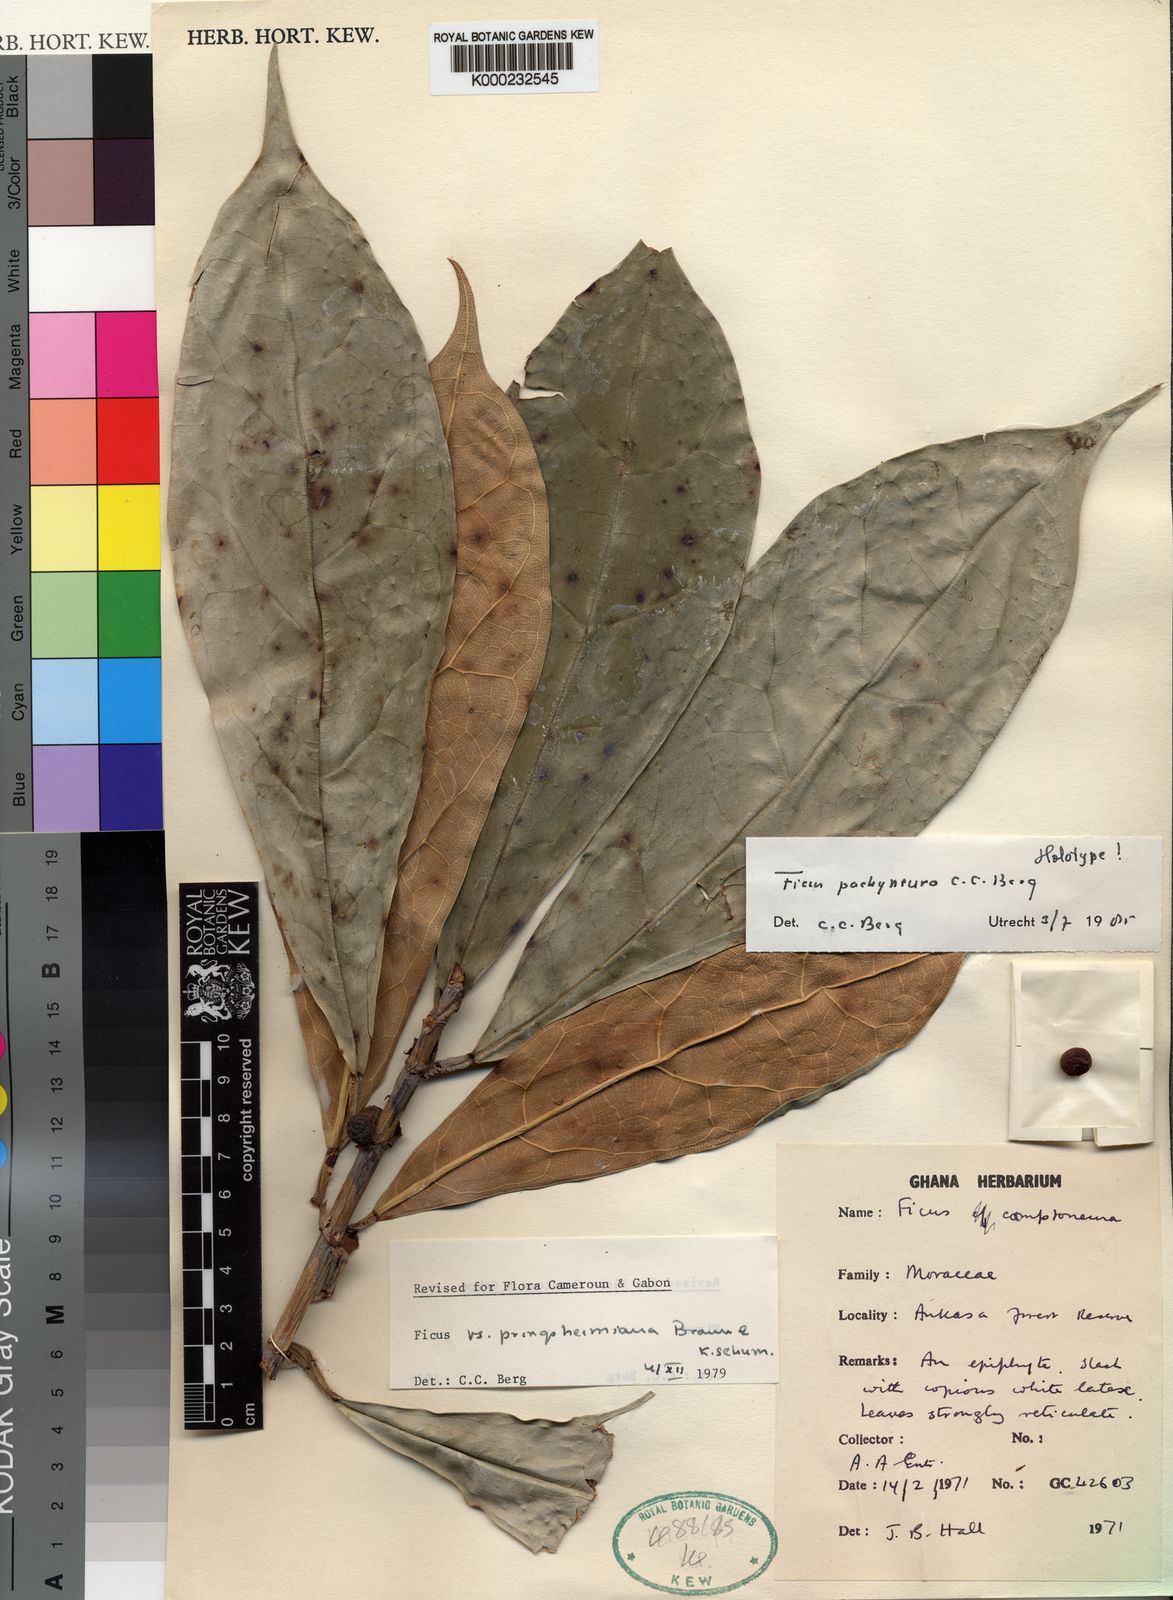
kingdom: Plantae
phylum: Tracheophyta
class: Magnoliopsida
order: Rosales
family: Moraceae
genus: Ficus
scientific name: Ficus
